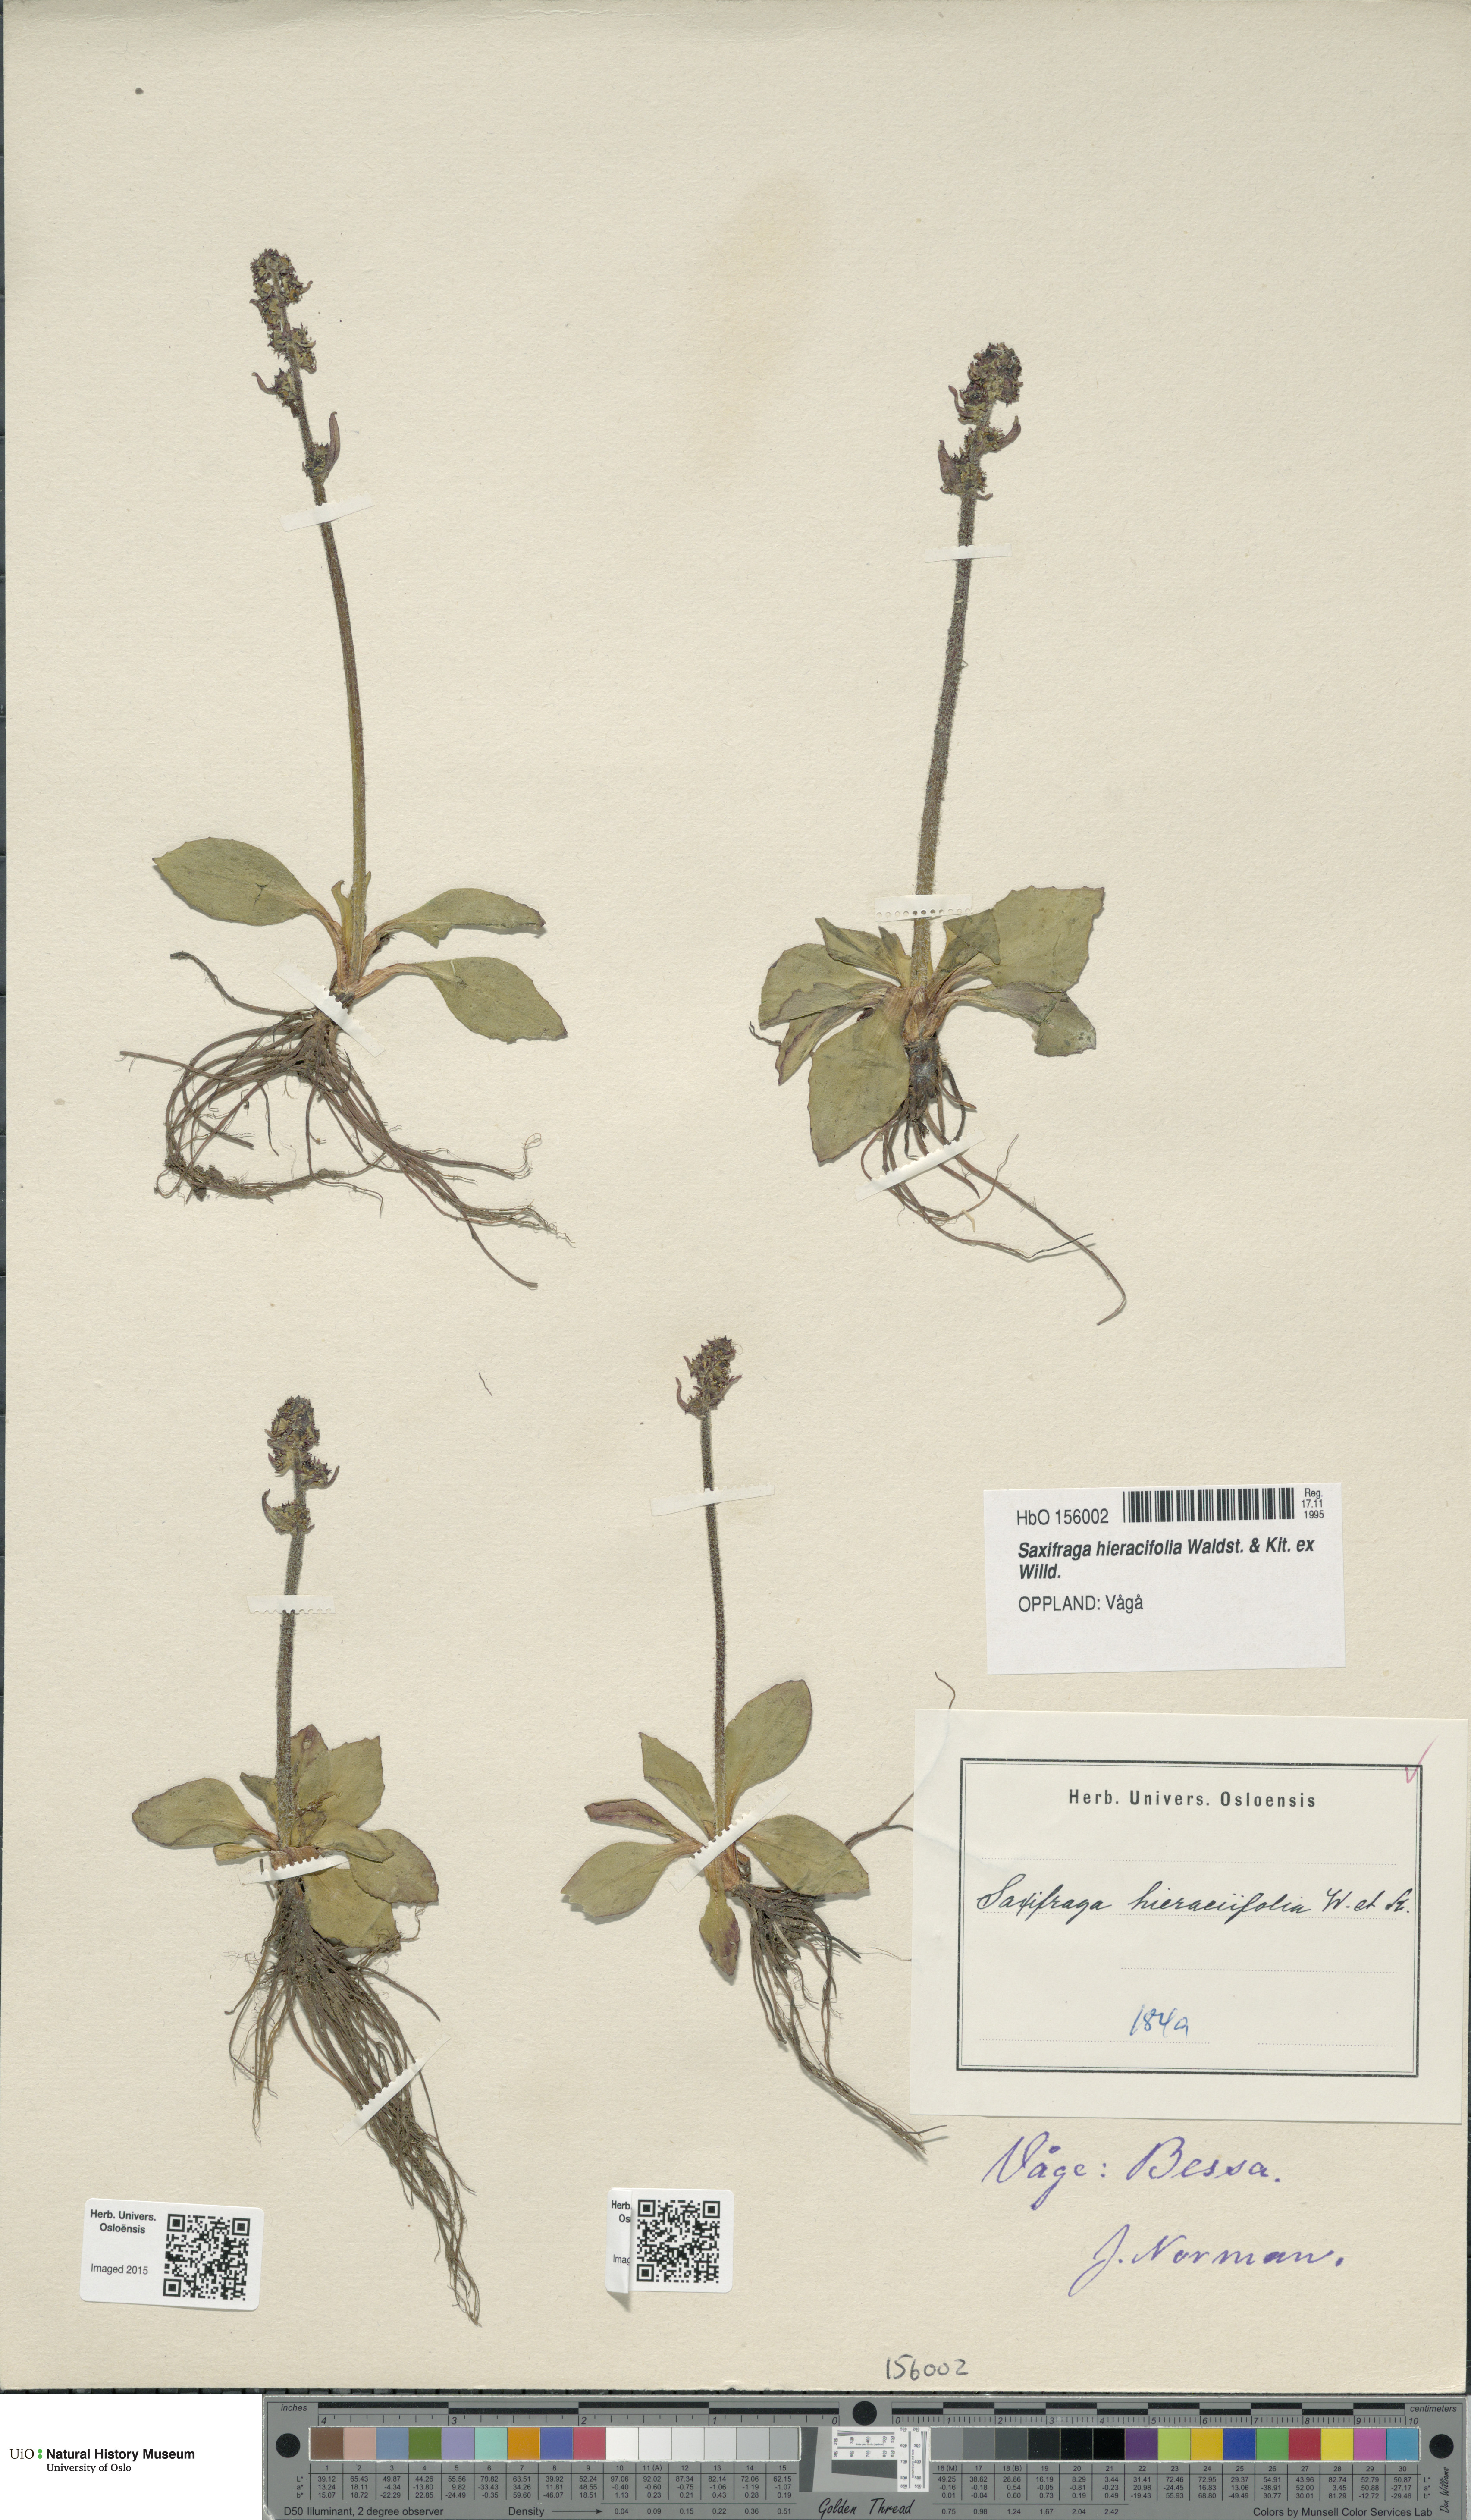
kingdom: Plantae
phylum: Tracheophyta
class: Magnoliopsida
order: Saxifragales
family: Saxifragaceae
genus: Micranthes
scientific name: Micranthes hieraciifolia
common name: Hawkweed-leaved saxifrage
